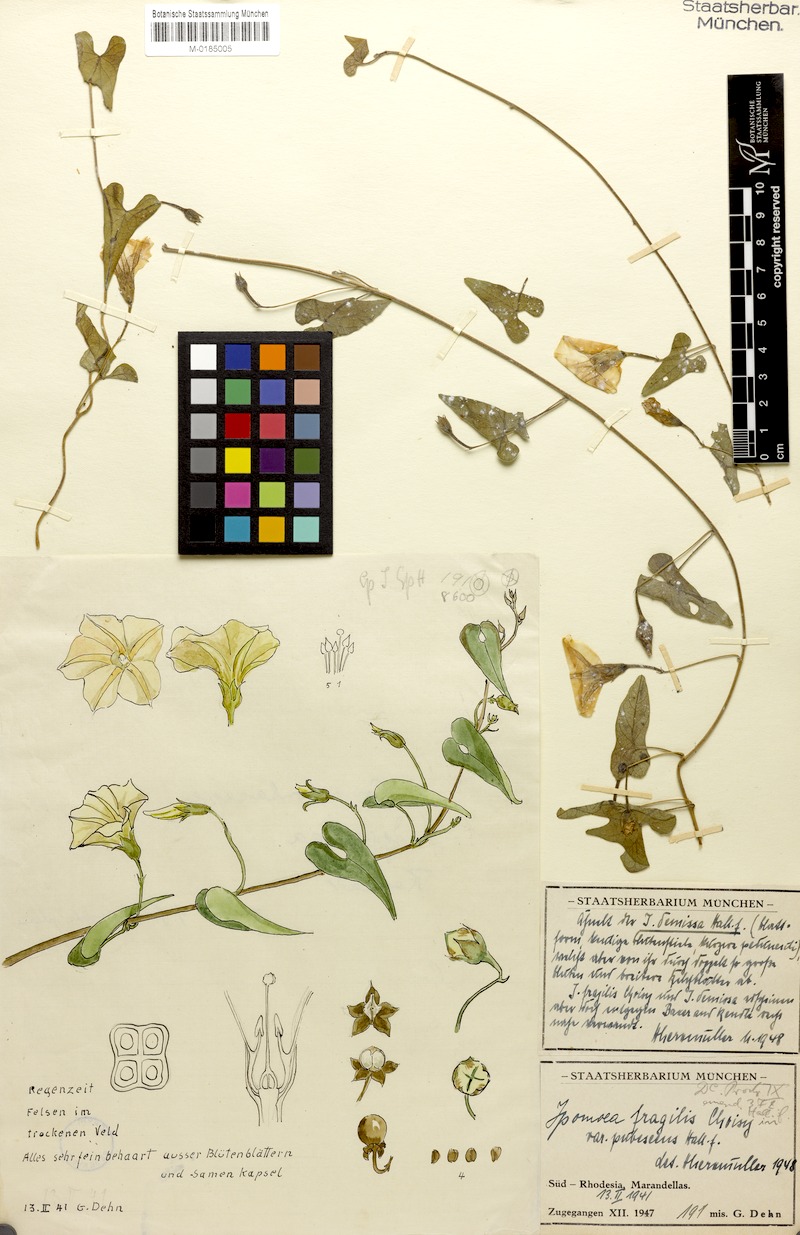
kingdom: Plantae
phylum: Tracheophyta
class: Magnoliopsida
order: Solanales
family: Convolvulaceae
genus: Ipomoea
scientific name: Ipomoea obscura
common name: Obscure morning-glory
